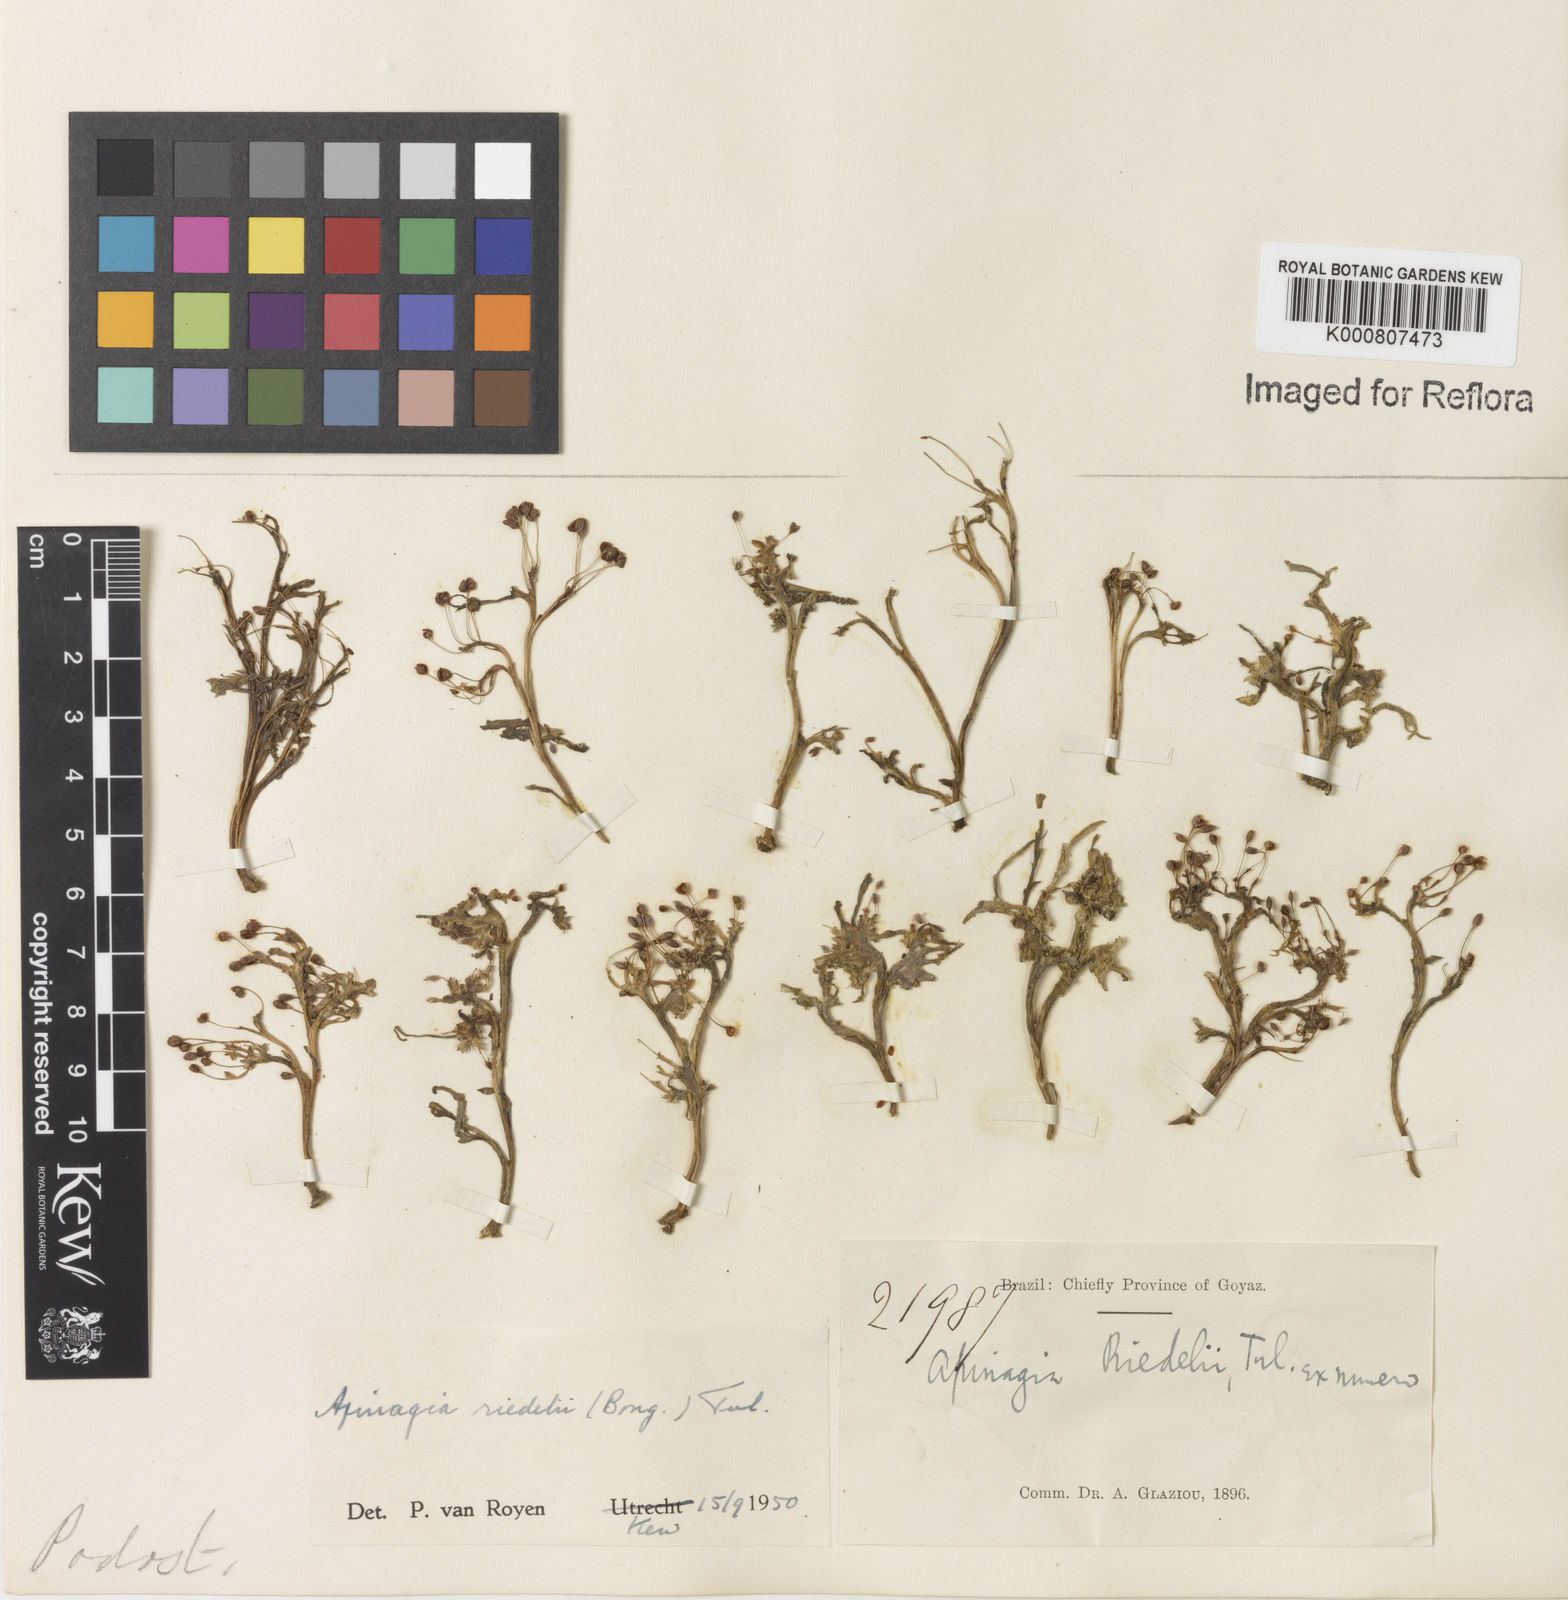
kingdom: Plantae
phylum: Tracheophyta
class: Magnoliopsida
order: Malpighiales
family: Podostemaceae
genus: Apinagia
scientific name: Apinagia riedelii
